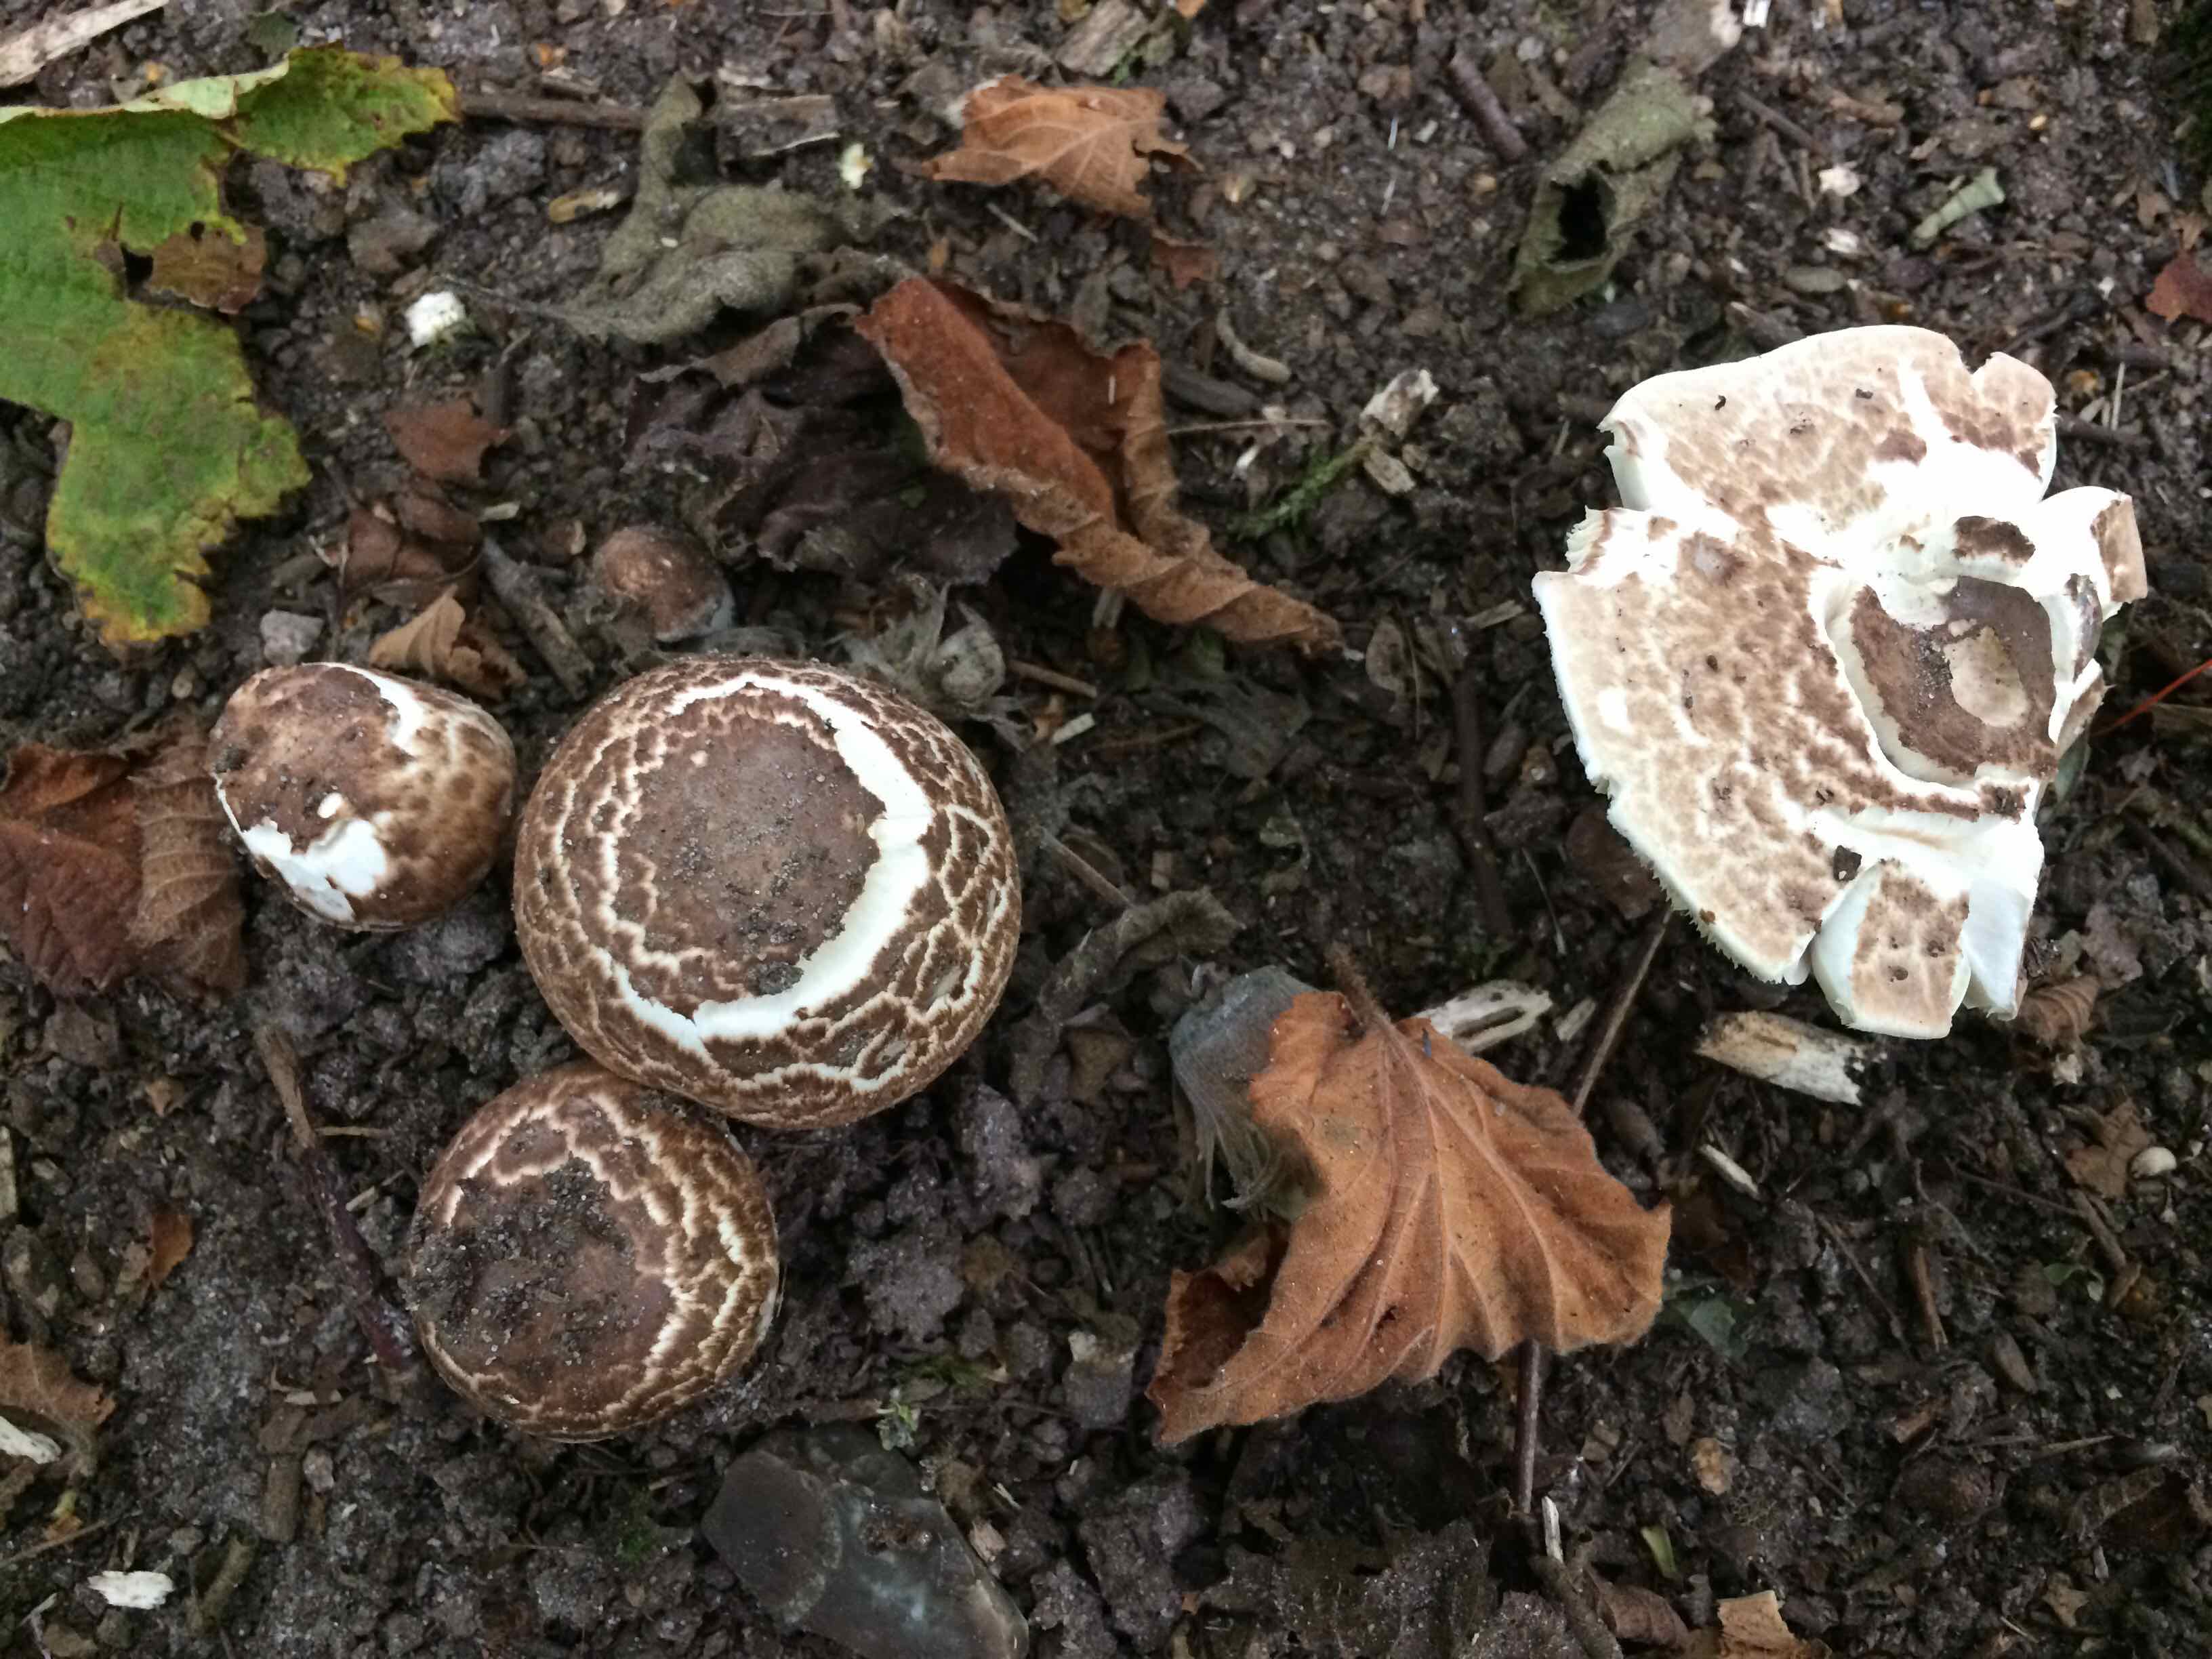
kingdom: Fungi
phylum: Basidiomycota
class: Agaricomycetes
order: Agaricales
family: Agaricaceae
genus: Agaricus
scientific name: Agaricus impudicus
